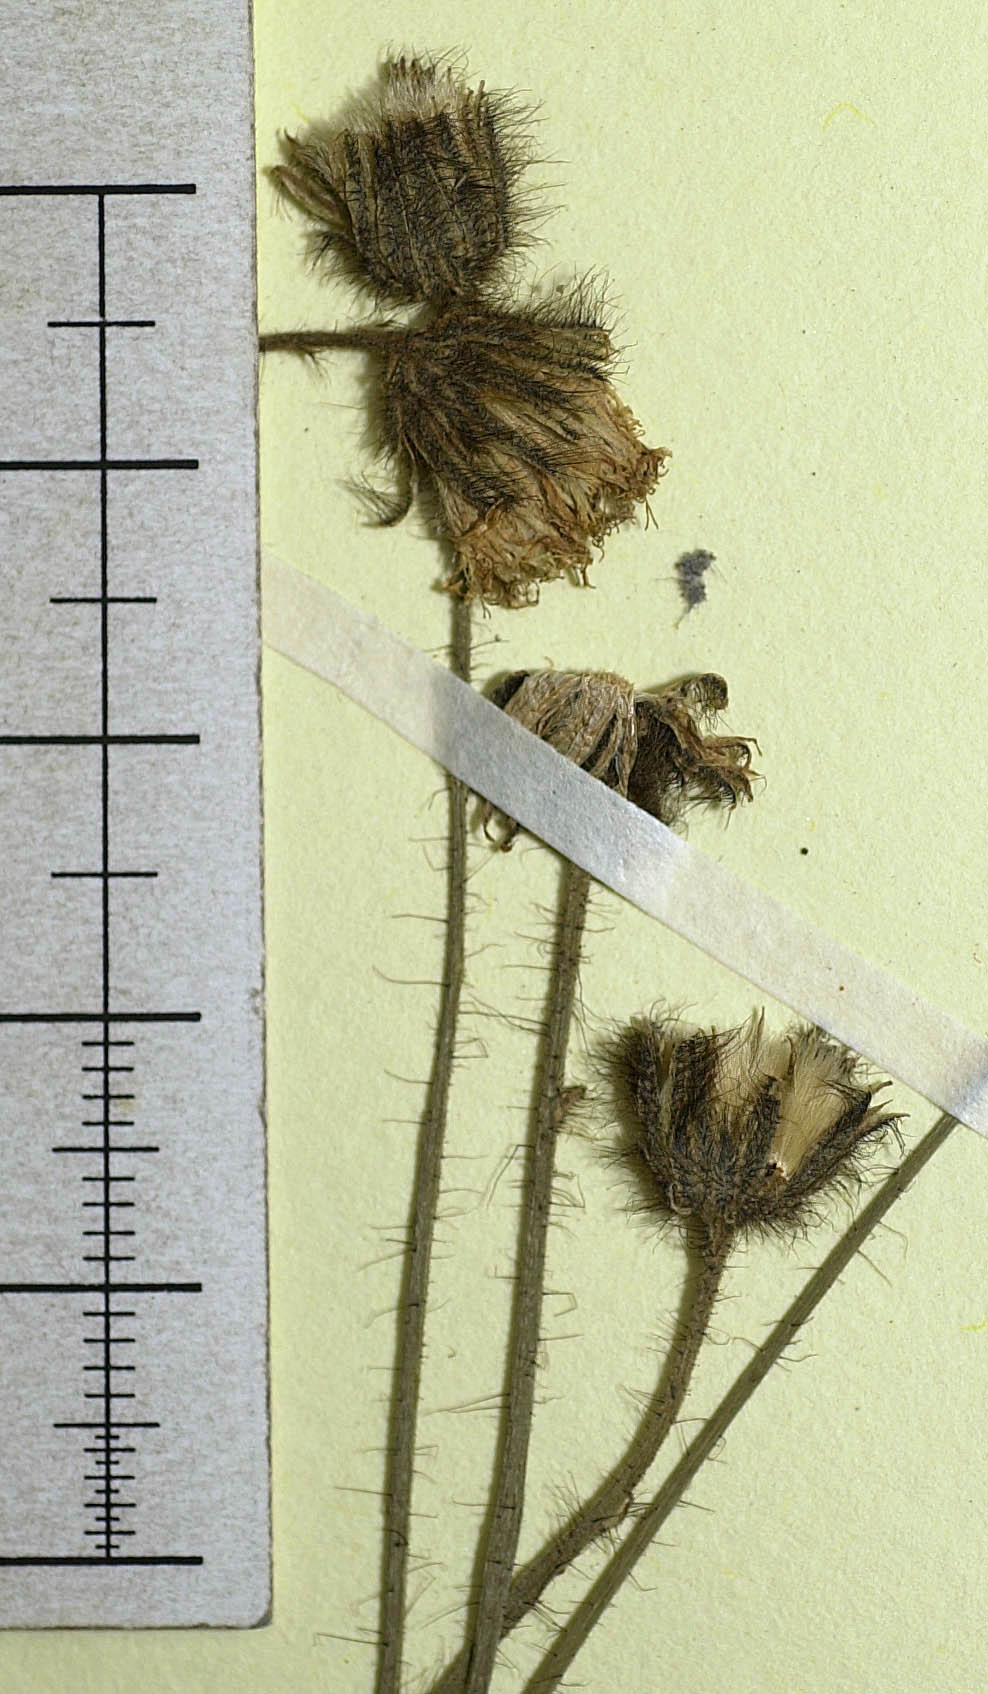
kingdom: Plantae
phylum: Tracheophyta
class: Magnoliopsida
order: Asterales
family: Asteraceae
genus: Hieracium
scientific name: Hieracium illegitimum
